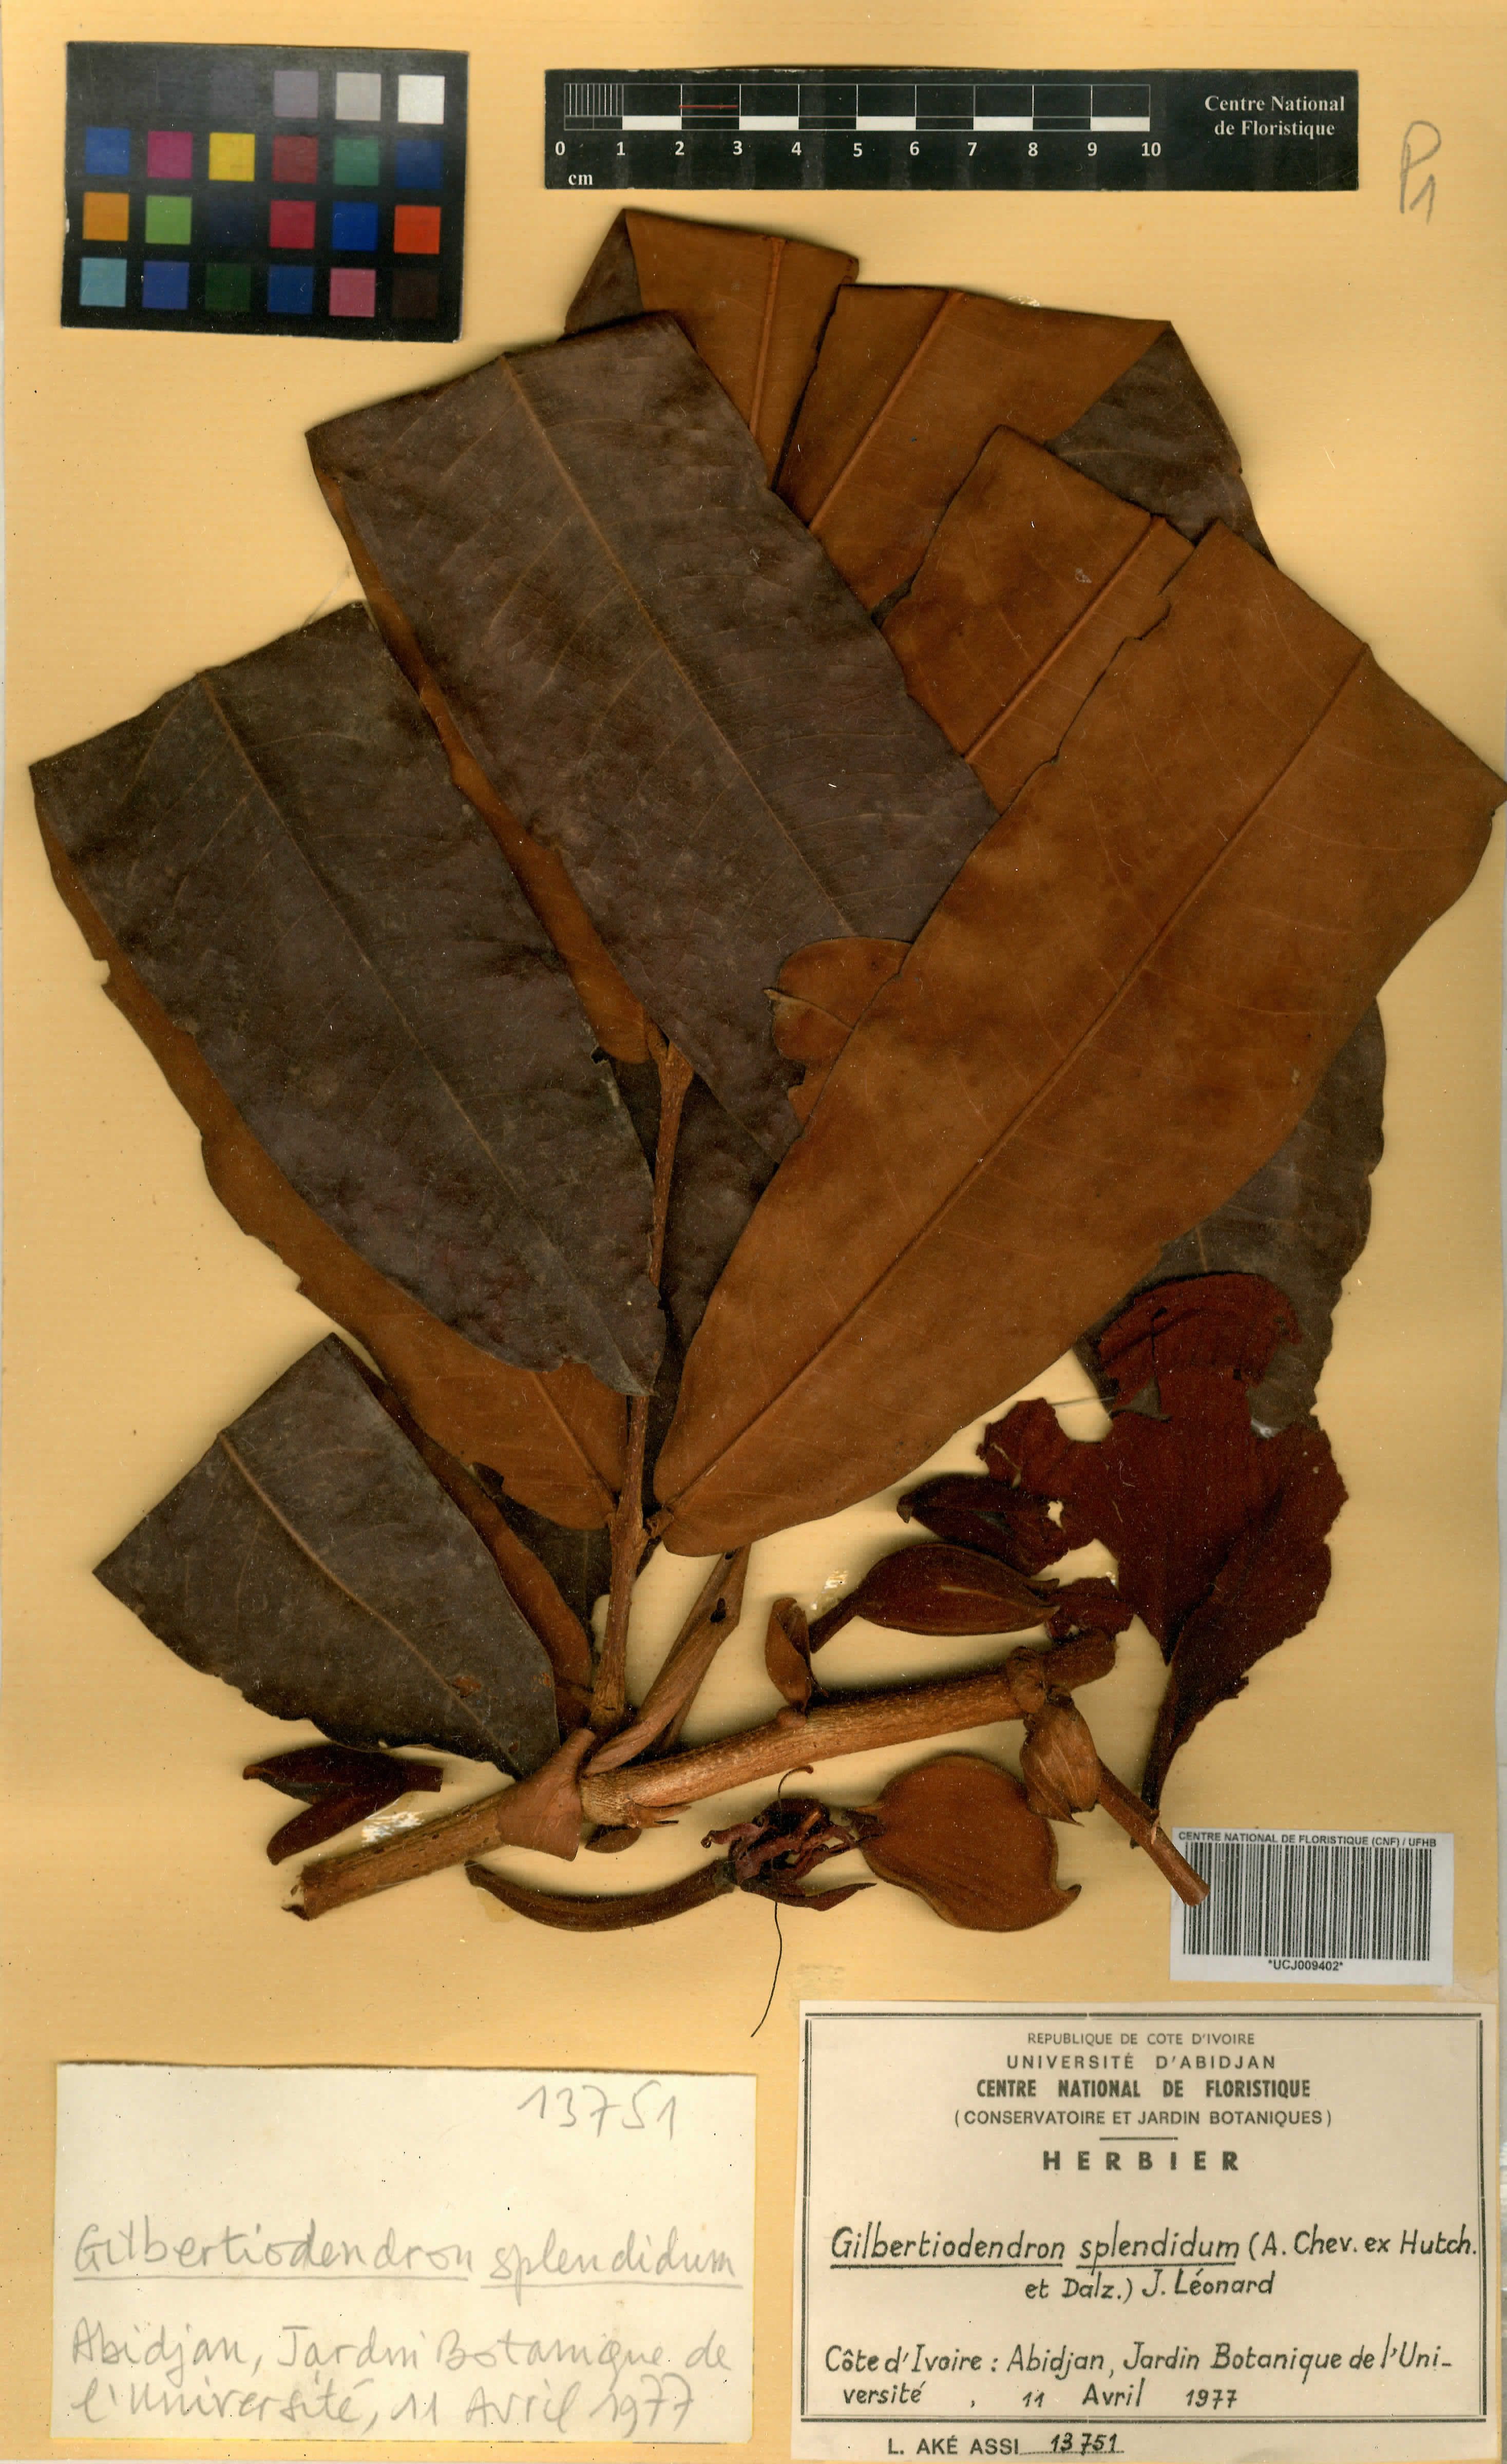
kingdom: Plantae
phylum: Tracheophyta
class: Magnoliopsida
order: Fabales
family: Fabaceae
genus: Gilbertiodendron
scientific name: Gilbertiodendron splendidum
